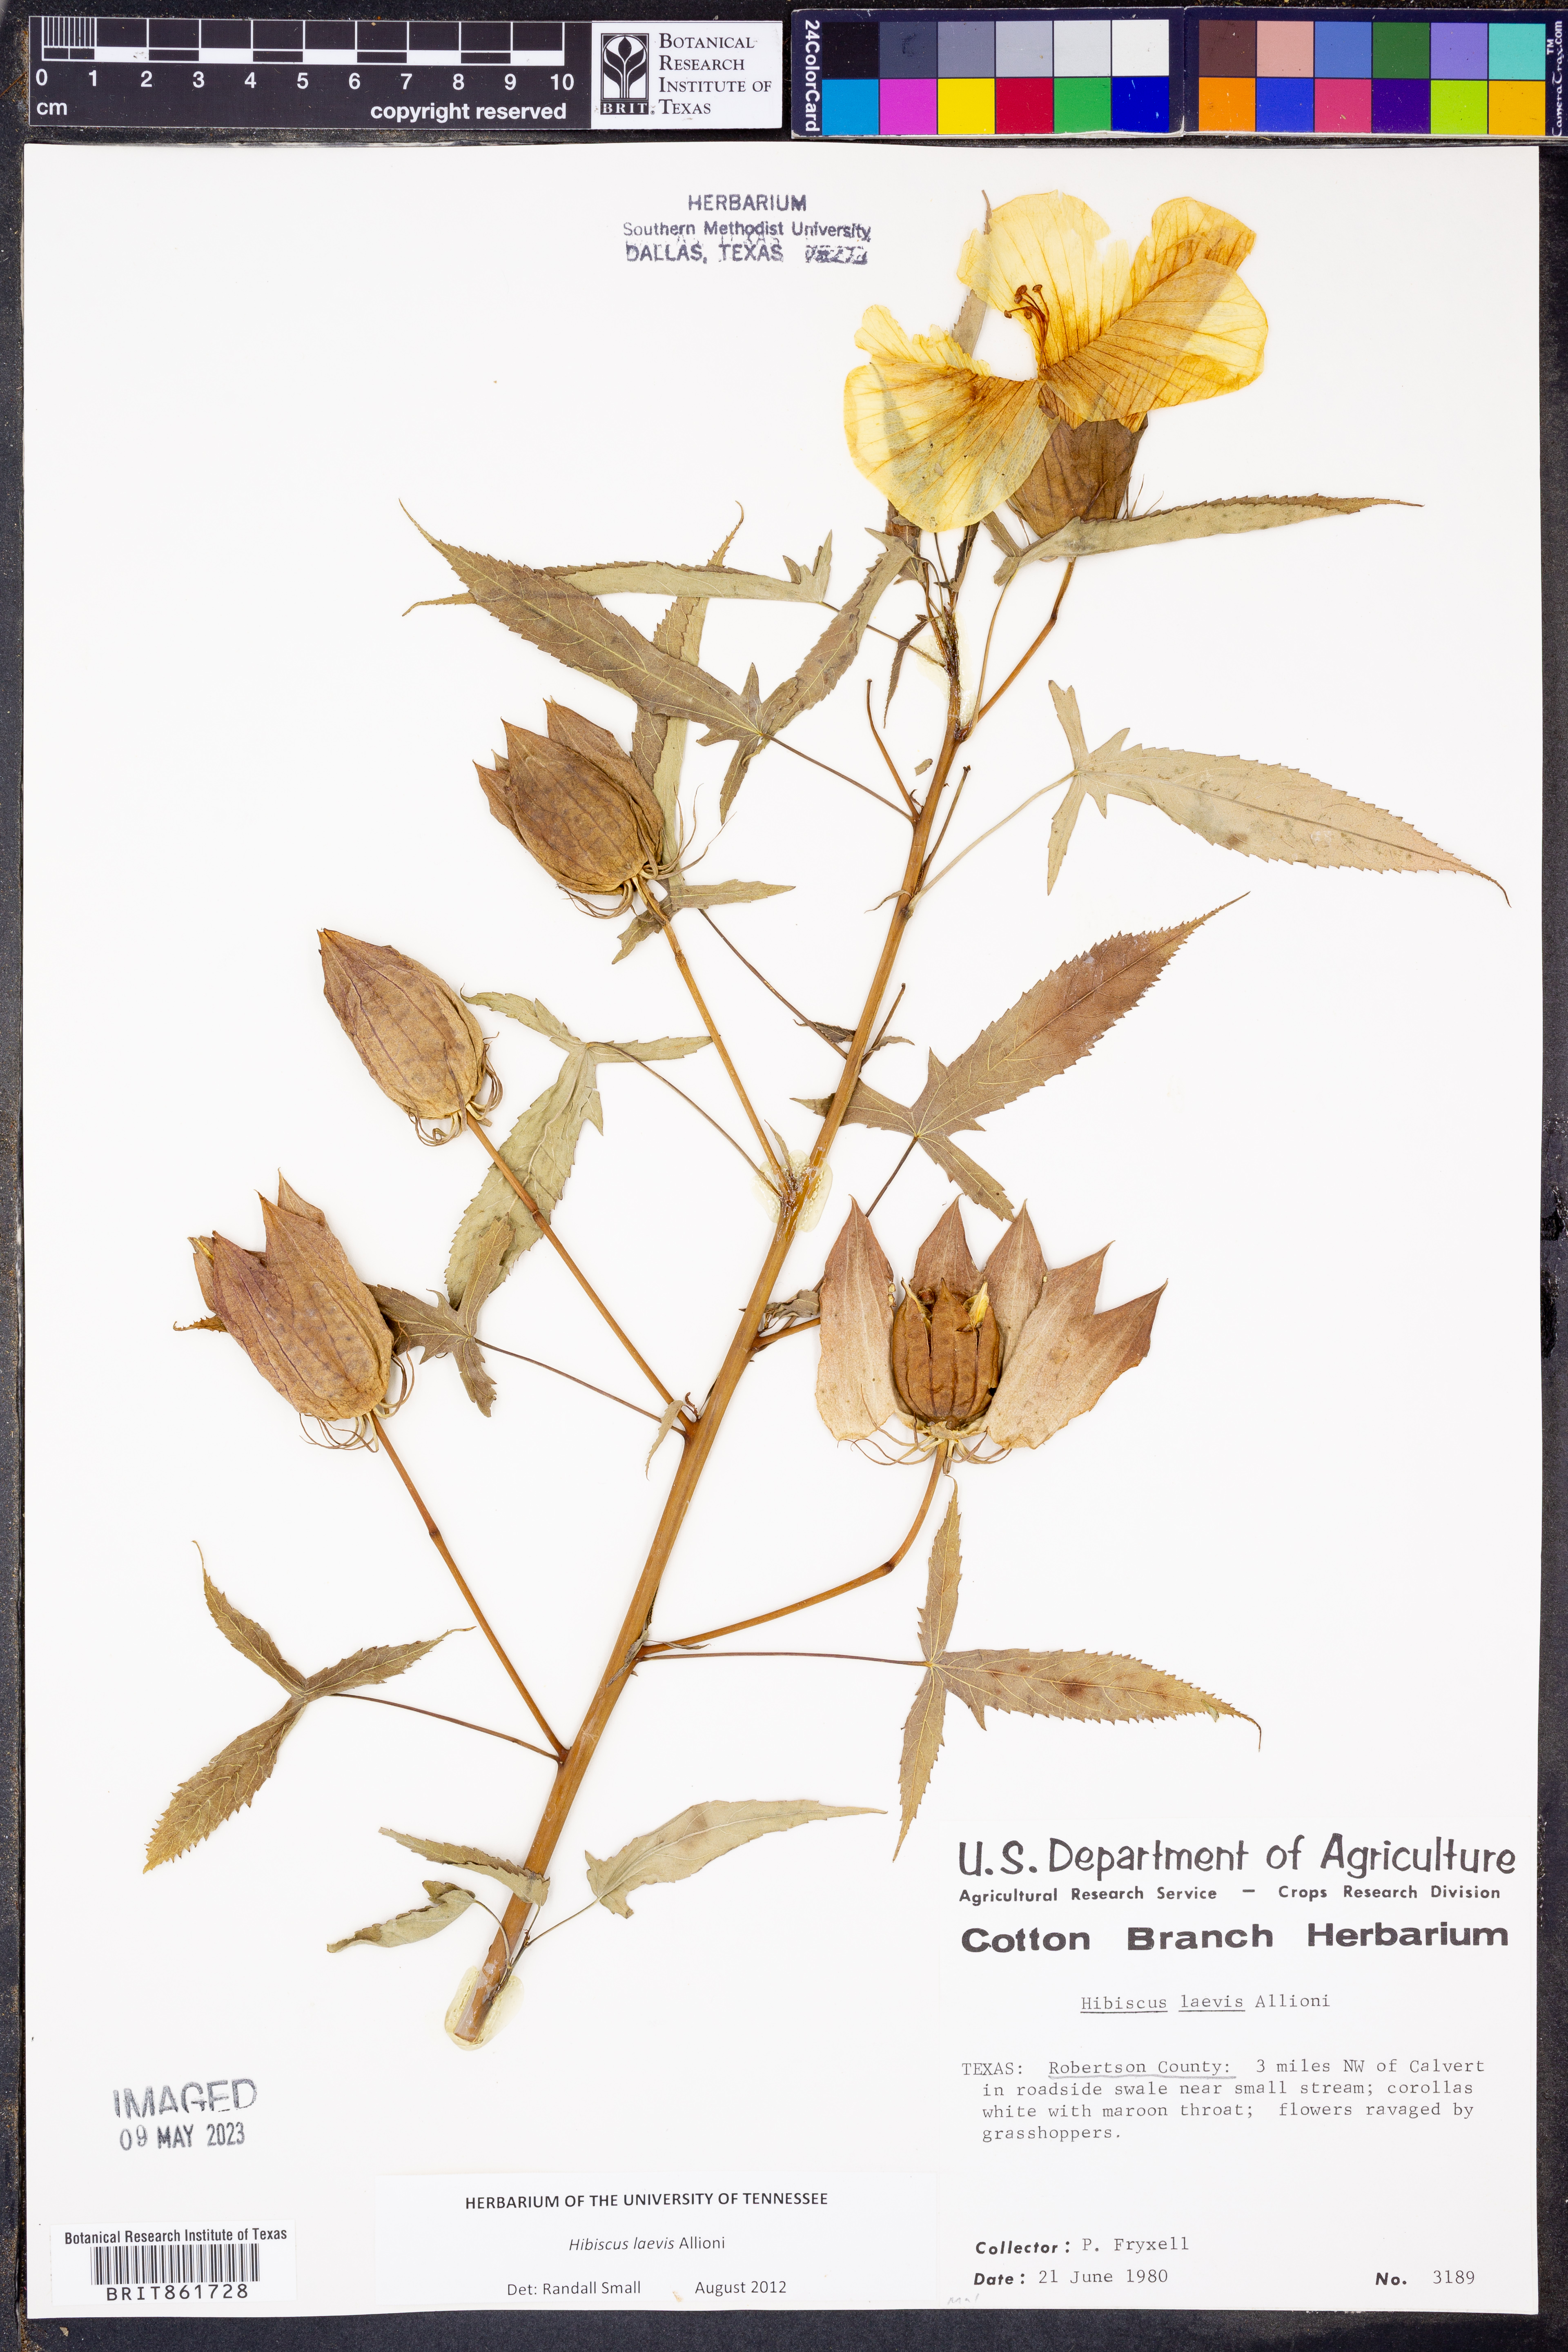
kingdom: Plantae
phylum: Tracheophyta
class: Magnoliopsida
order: Malvales
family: Malvaceae
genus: Hibiscus
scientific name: Hibiscus laevis
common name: Scarlet rose-mallow
